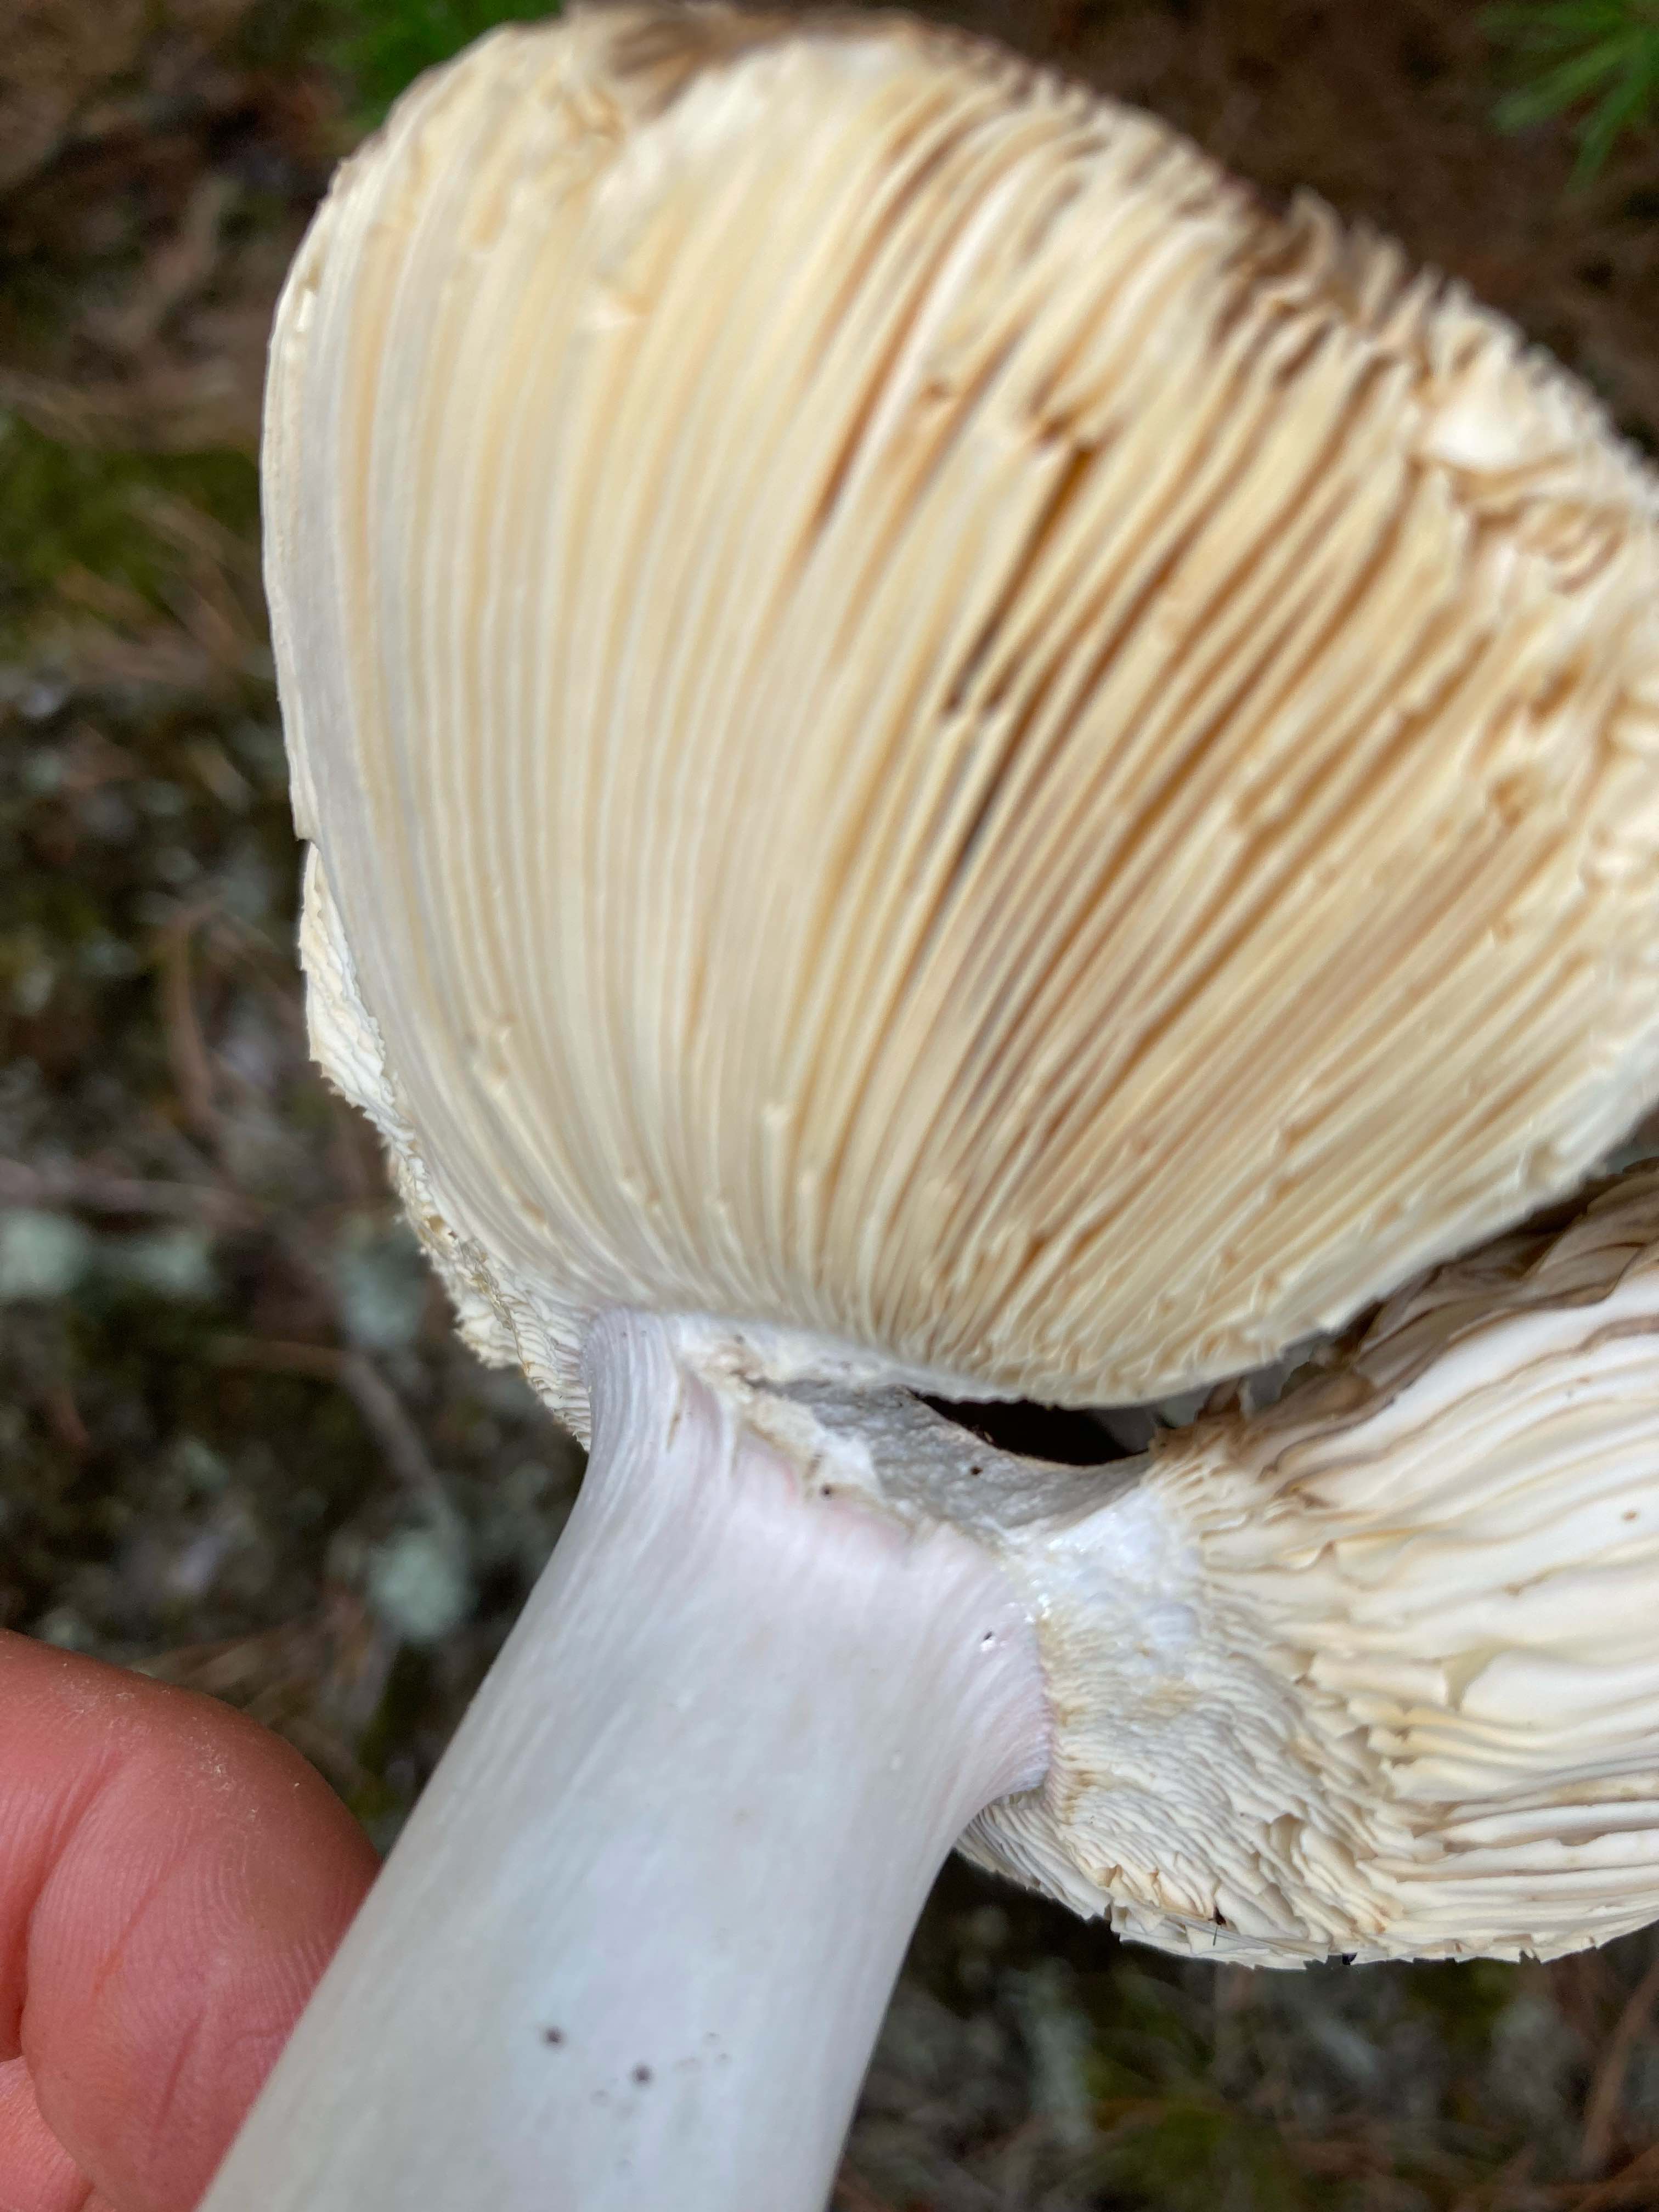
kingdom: Fungi
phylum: Basidiomycota
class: Agaricomycetes
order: Russulales
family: Russulaceae
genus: Russula
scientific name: Russula vinosa
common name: vinrød skørhat
